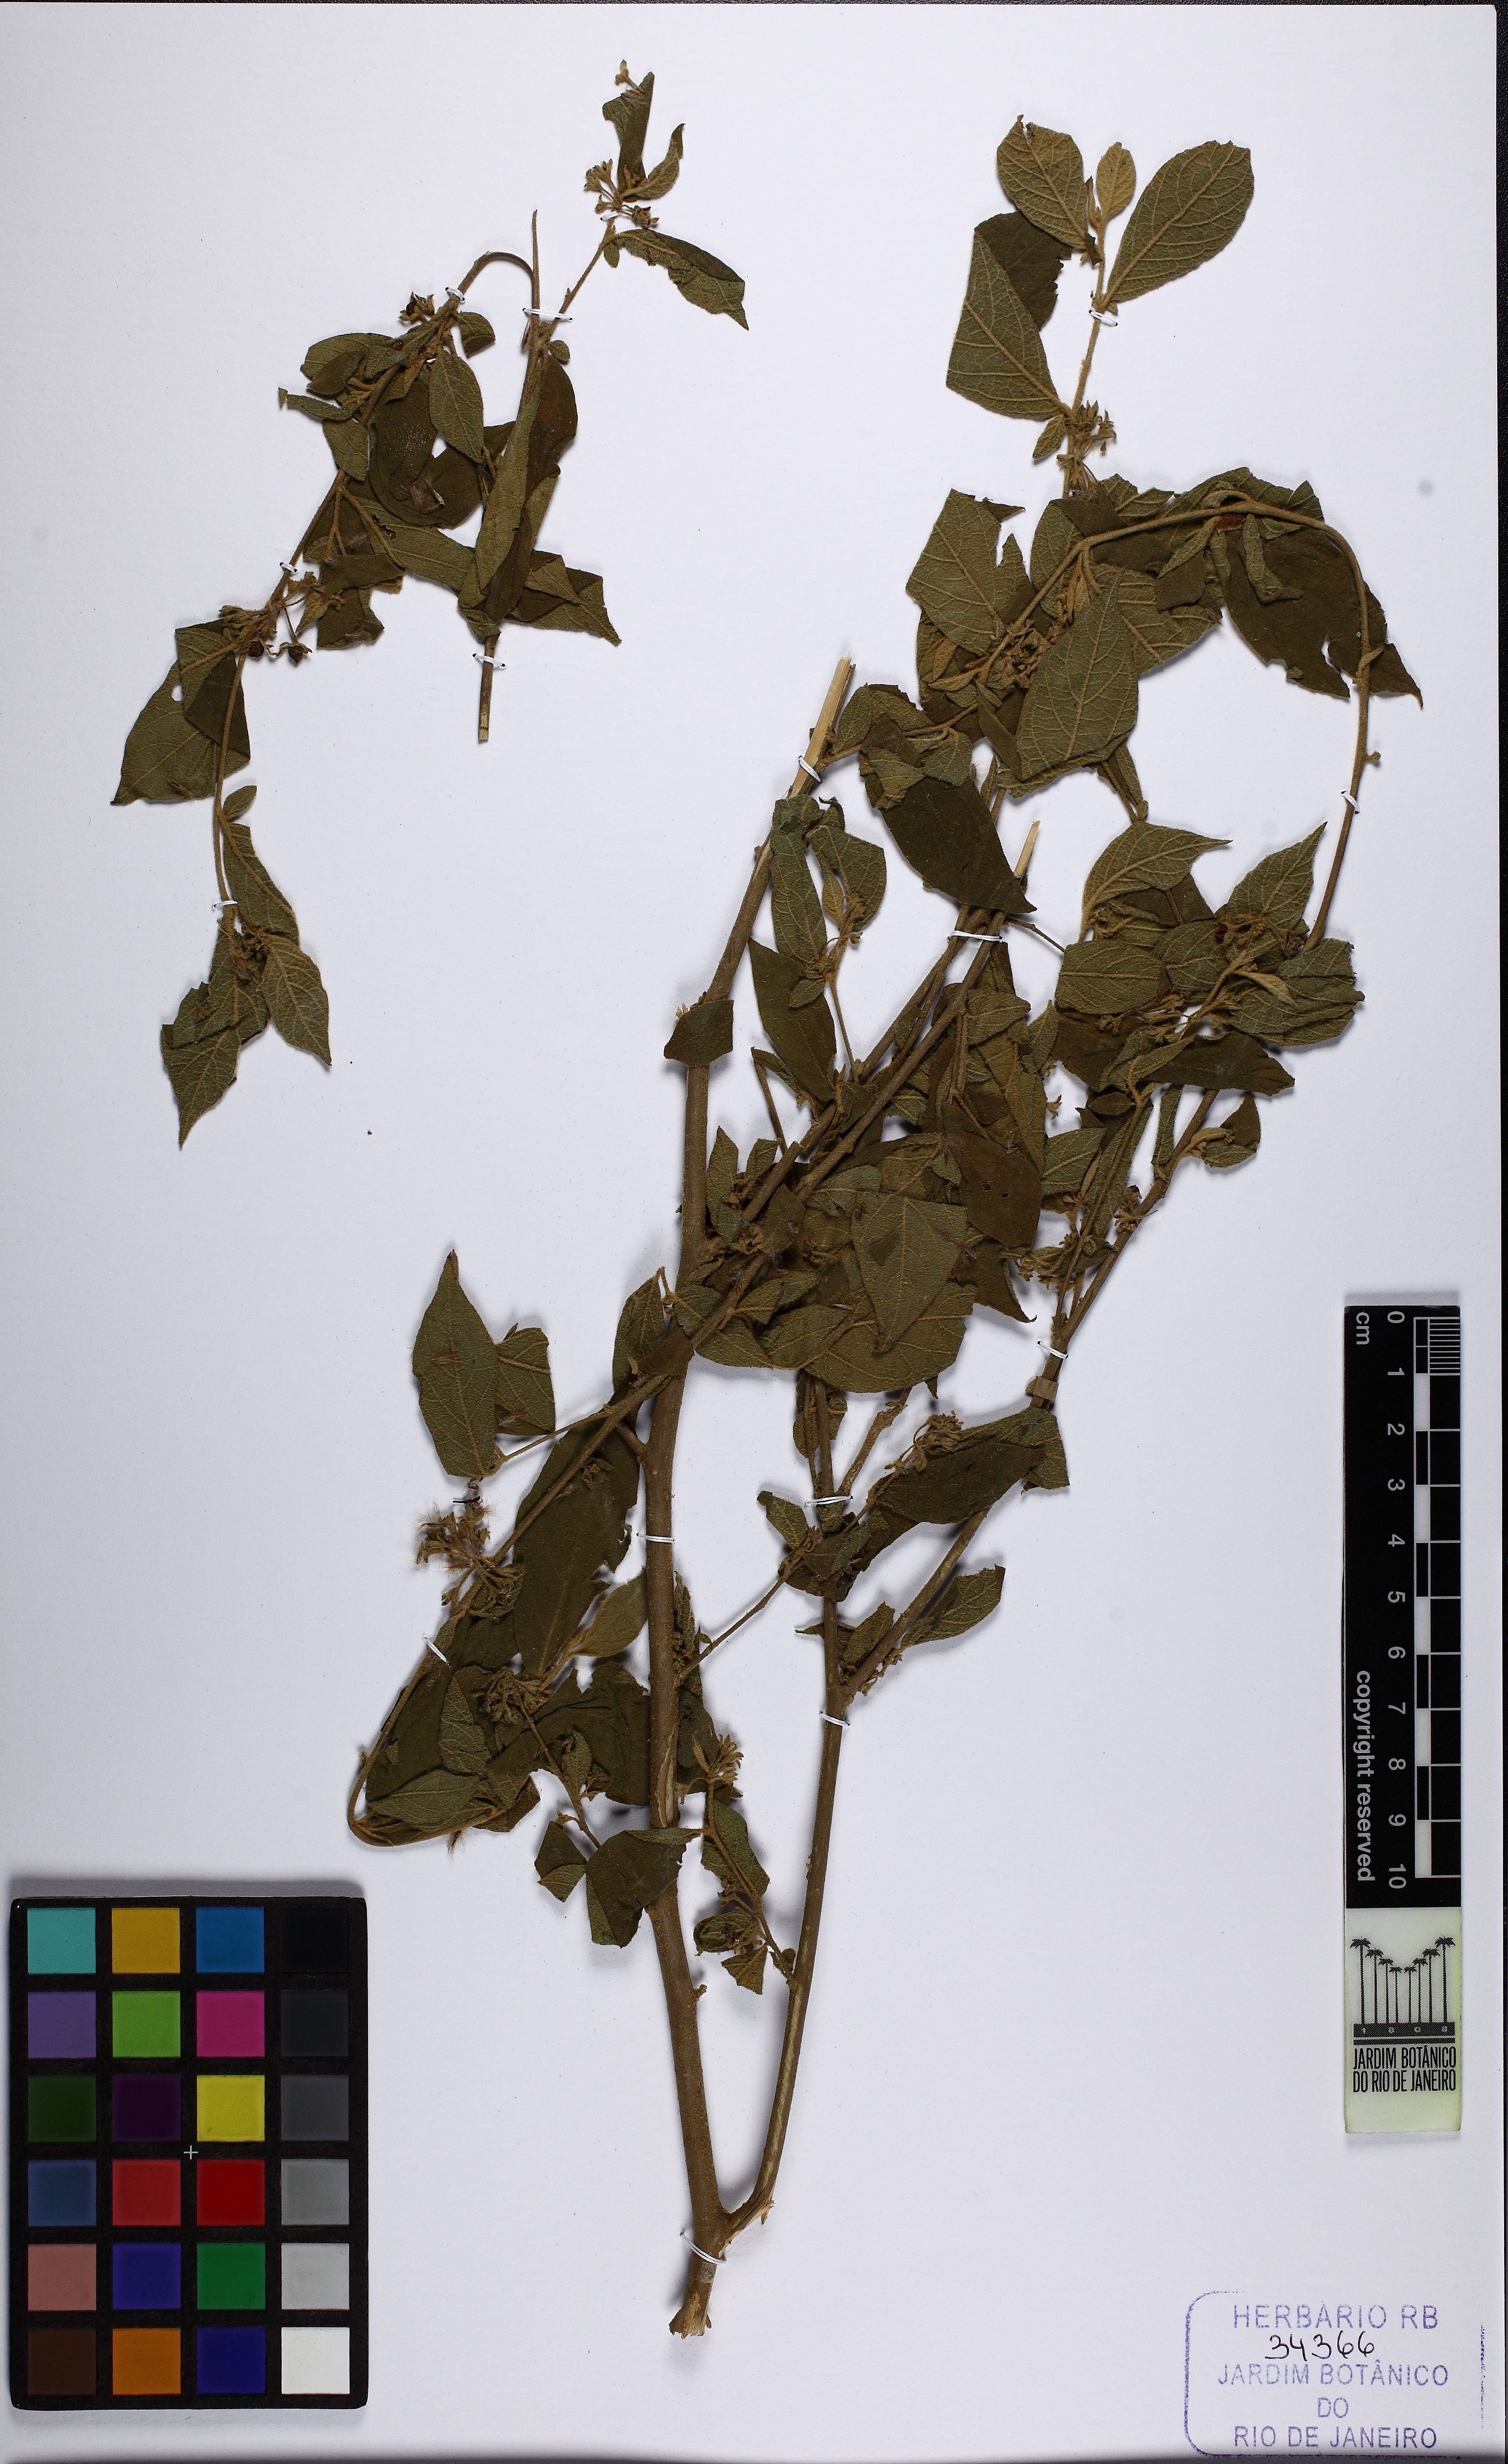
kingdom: Plantae
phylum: Tracheophyta
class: Magnoliopsida
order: Solanales
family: Solanaceae
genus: Solanum
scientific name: Solanum didymum
